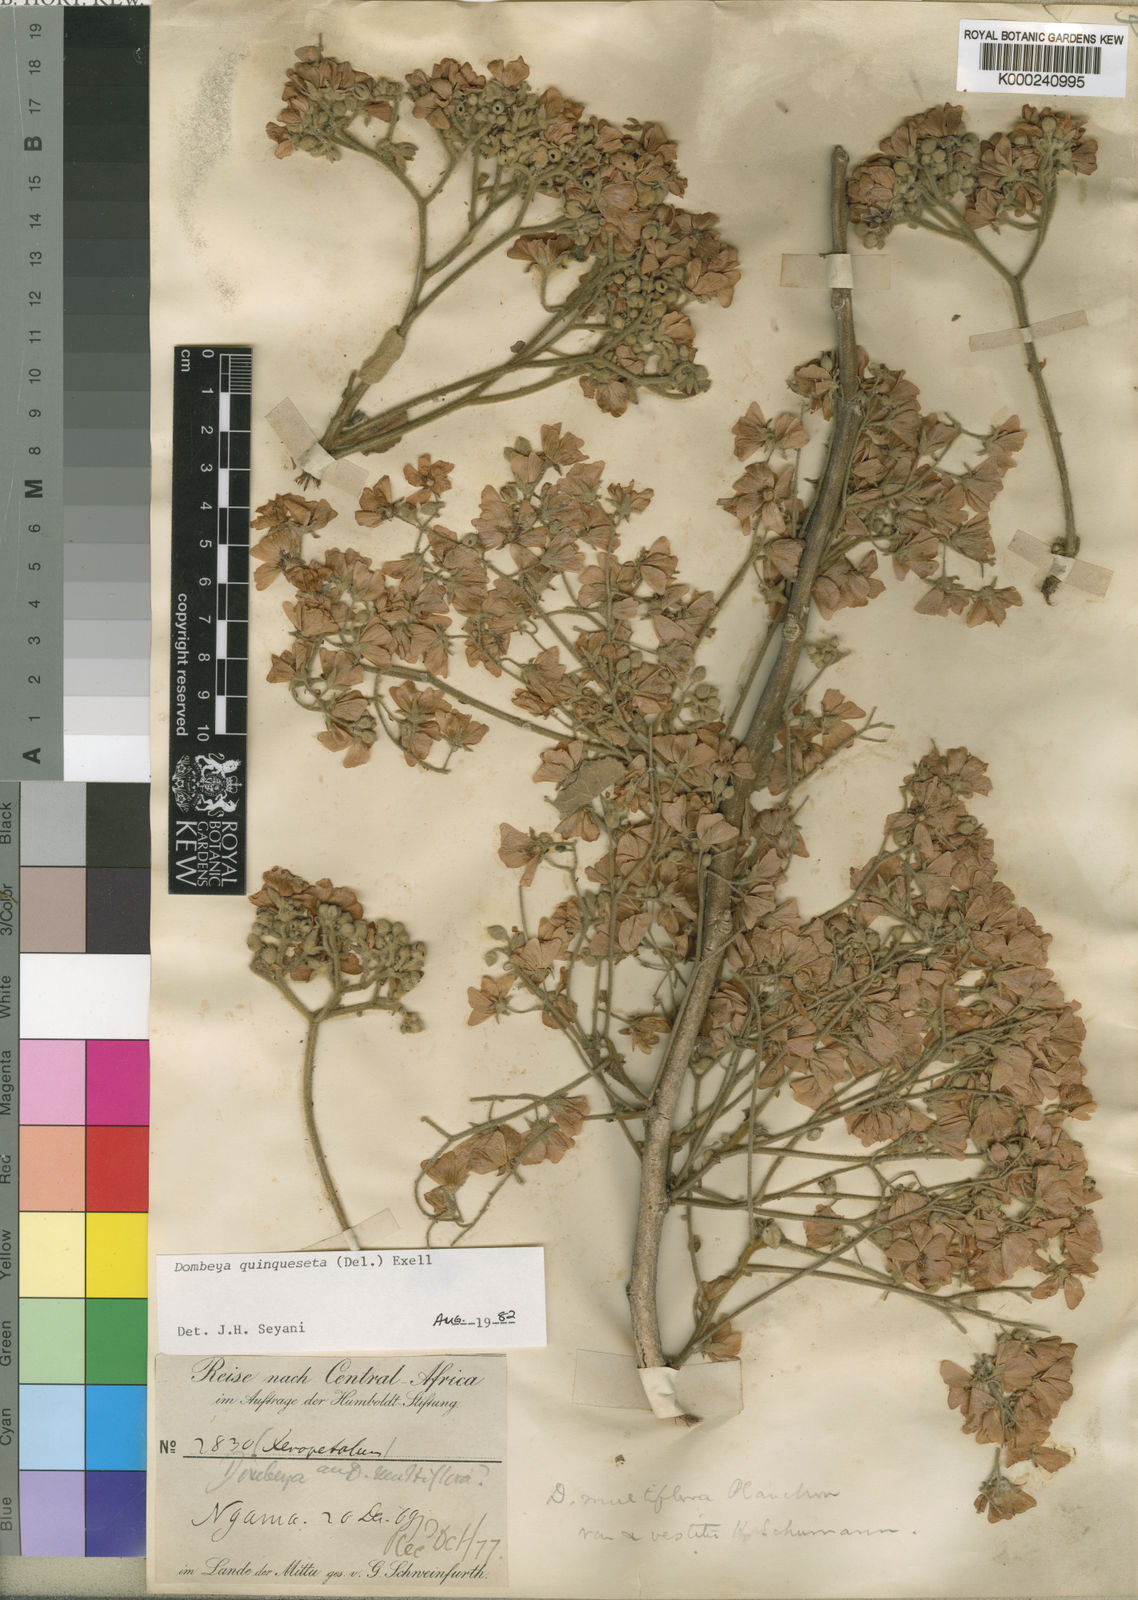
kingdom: Plantae
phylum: Tracheophyta
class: Magnoliopsida
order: Malvales
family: Malvaceae
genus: Dombeya
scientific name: Dombeya quinqueseta
